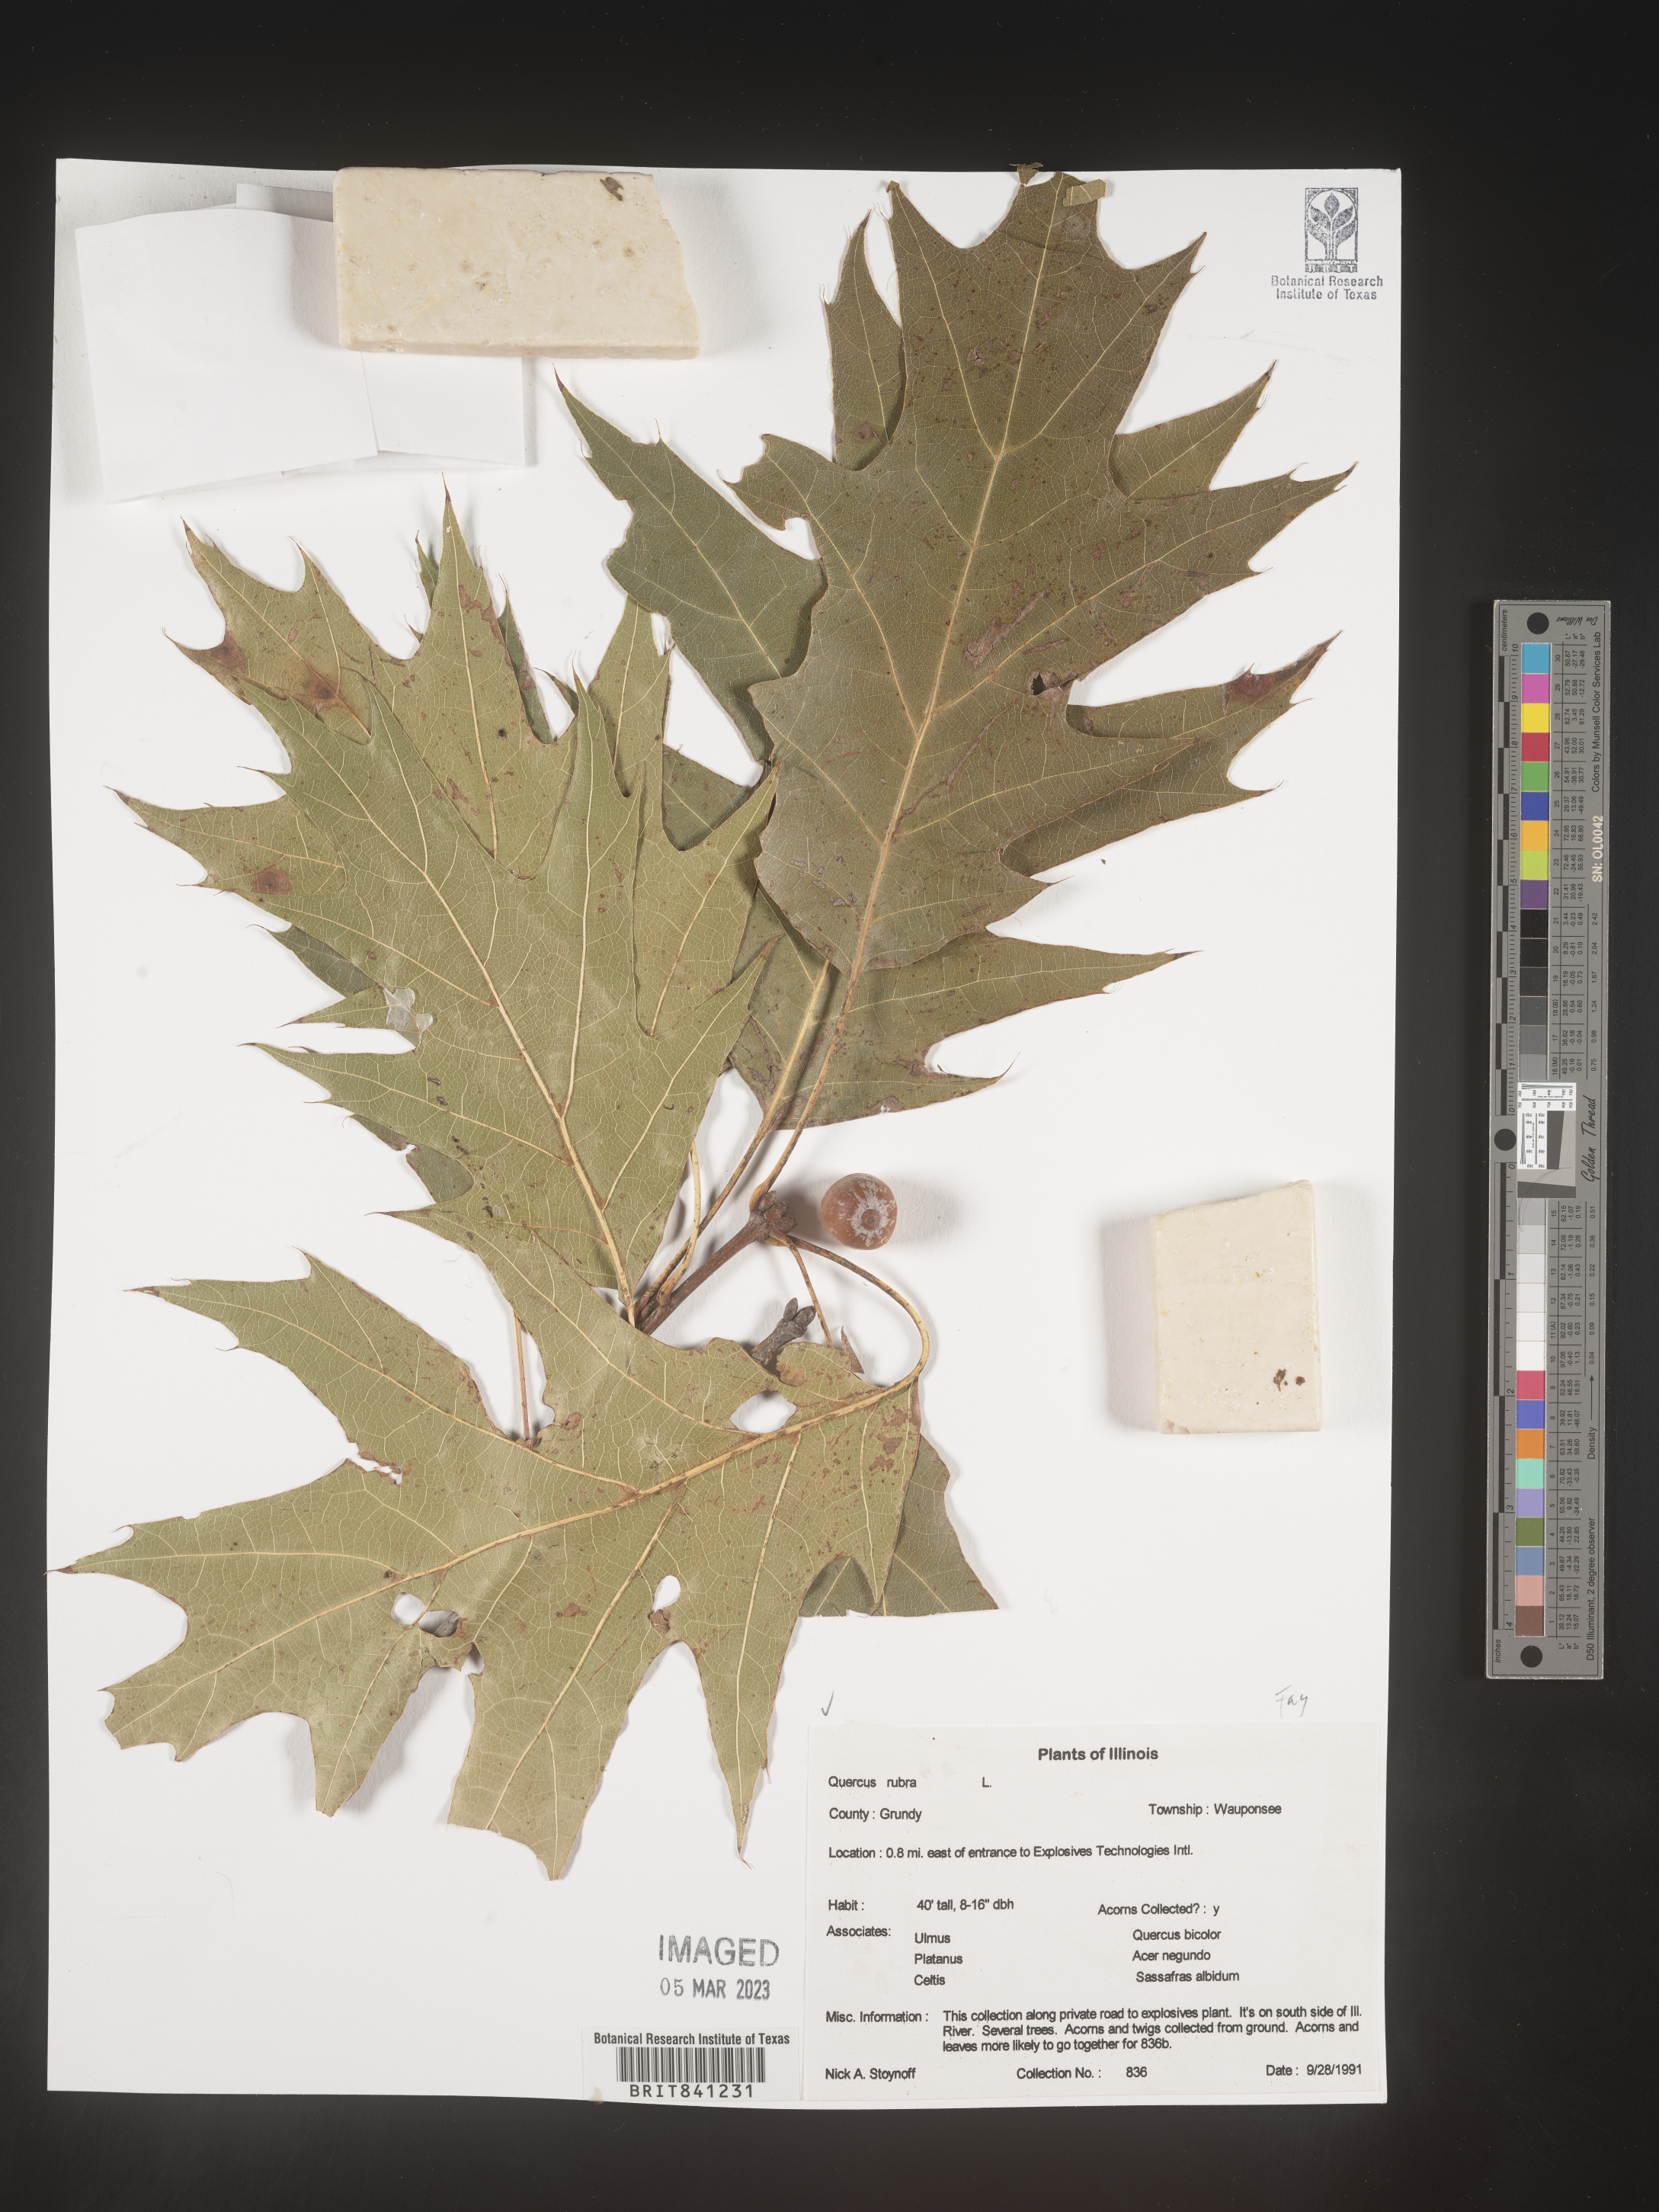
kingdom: Plantae
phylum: Tracheophyta
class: Magnoliopsida
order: Fagales
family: Fagaceae
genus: Quercus
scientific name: Quercus rubra
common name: Red oak
